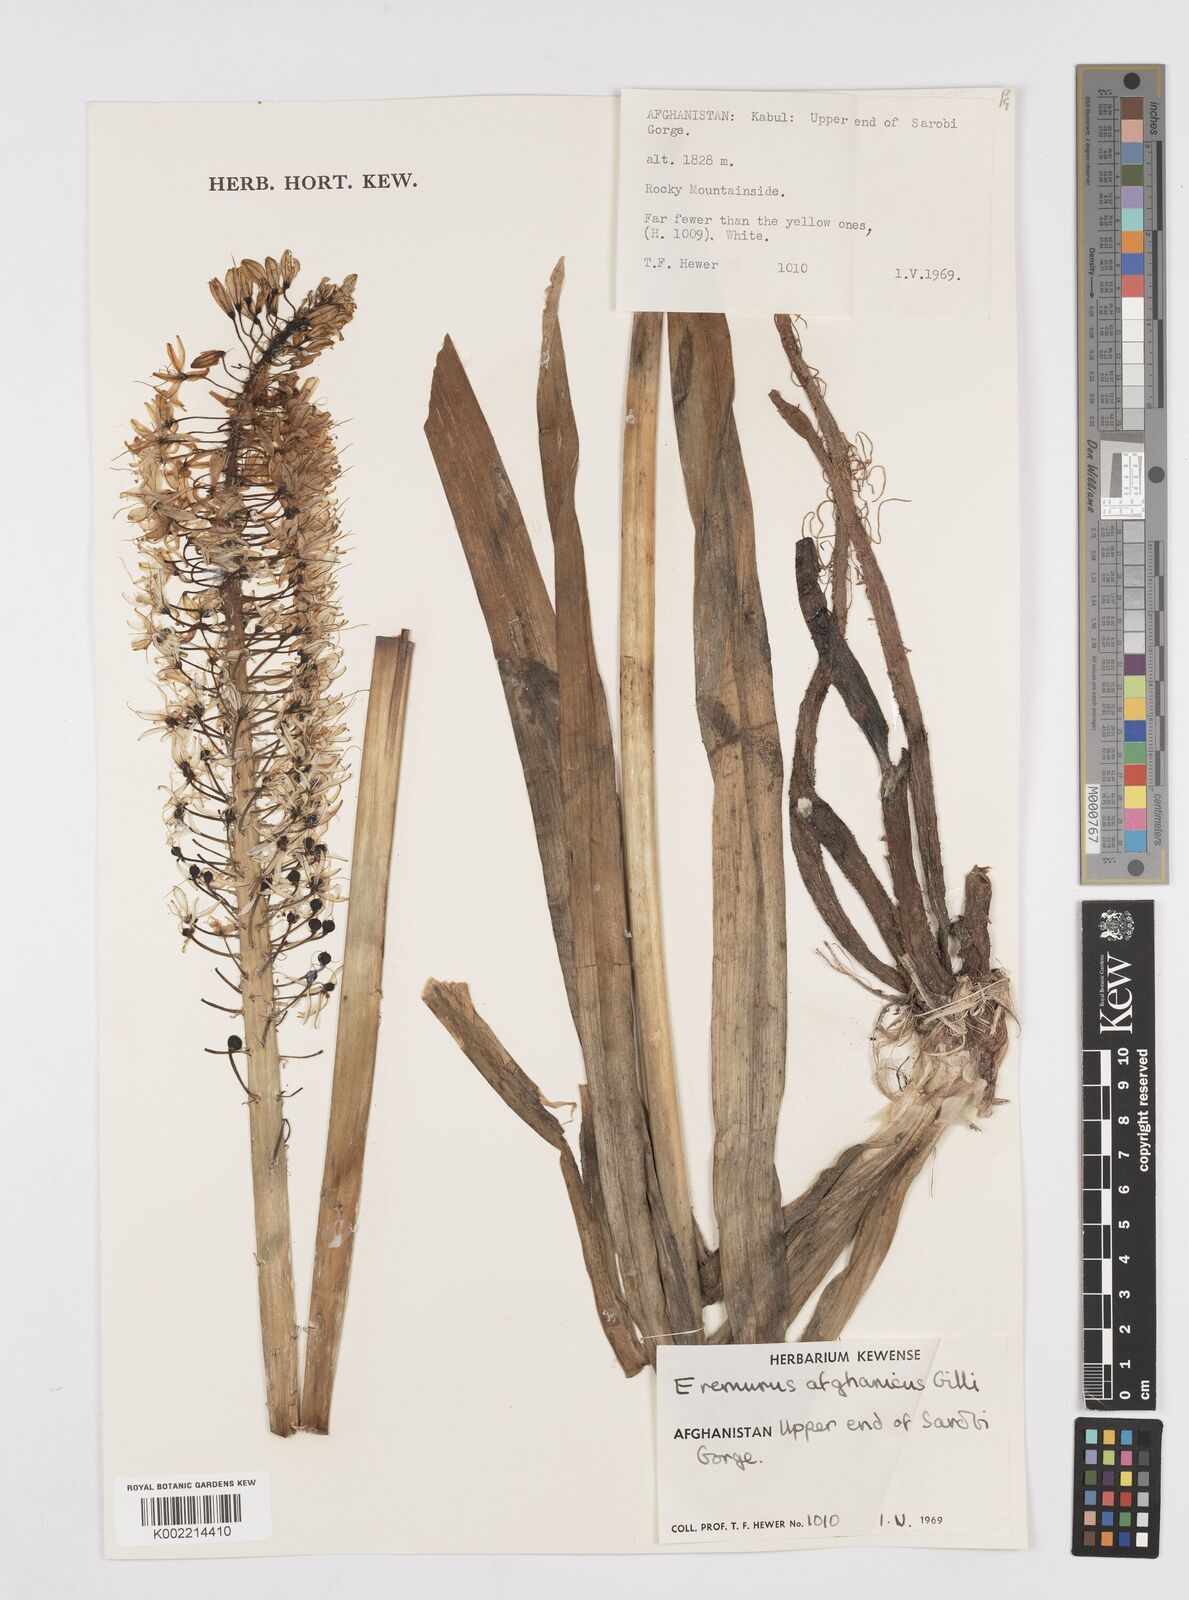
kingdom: Plantae
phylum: Tracheophyta
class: Liliopsida
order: Asparagales
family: Asphodelaceae
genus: Eremurus
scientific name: Eremurus afghanicus
